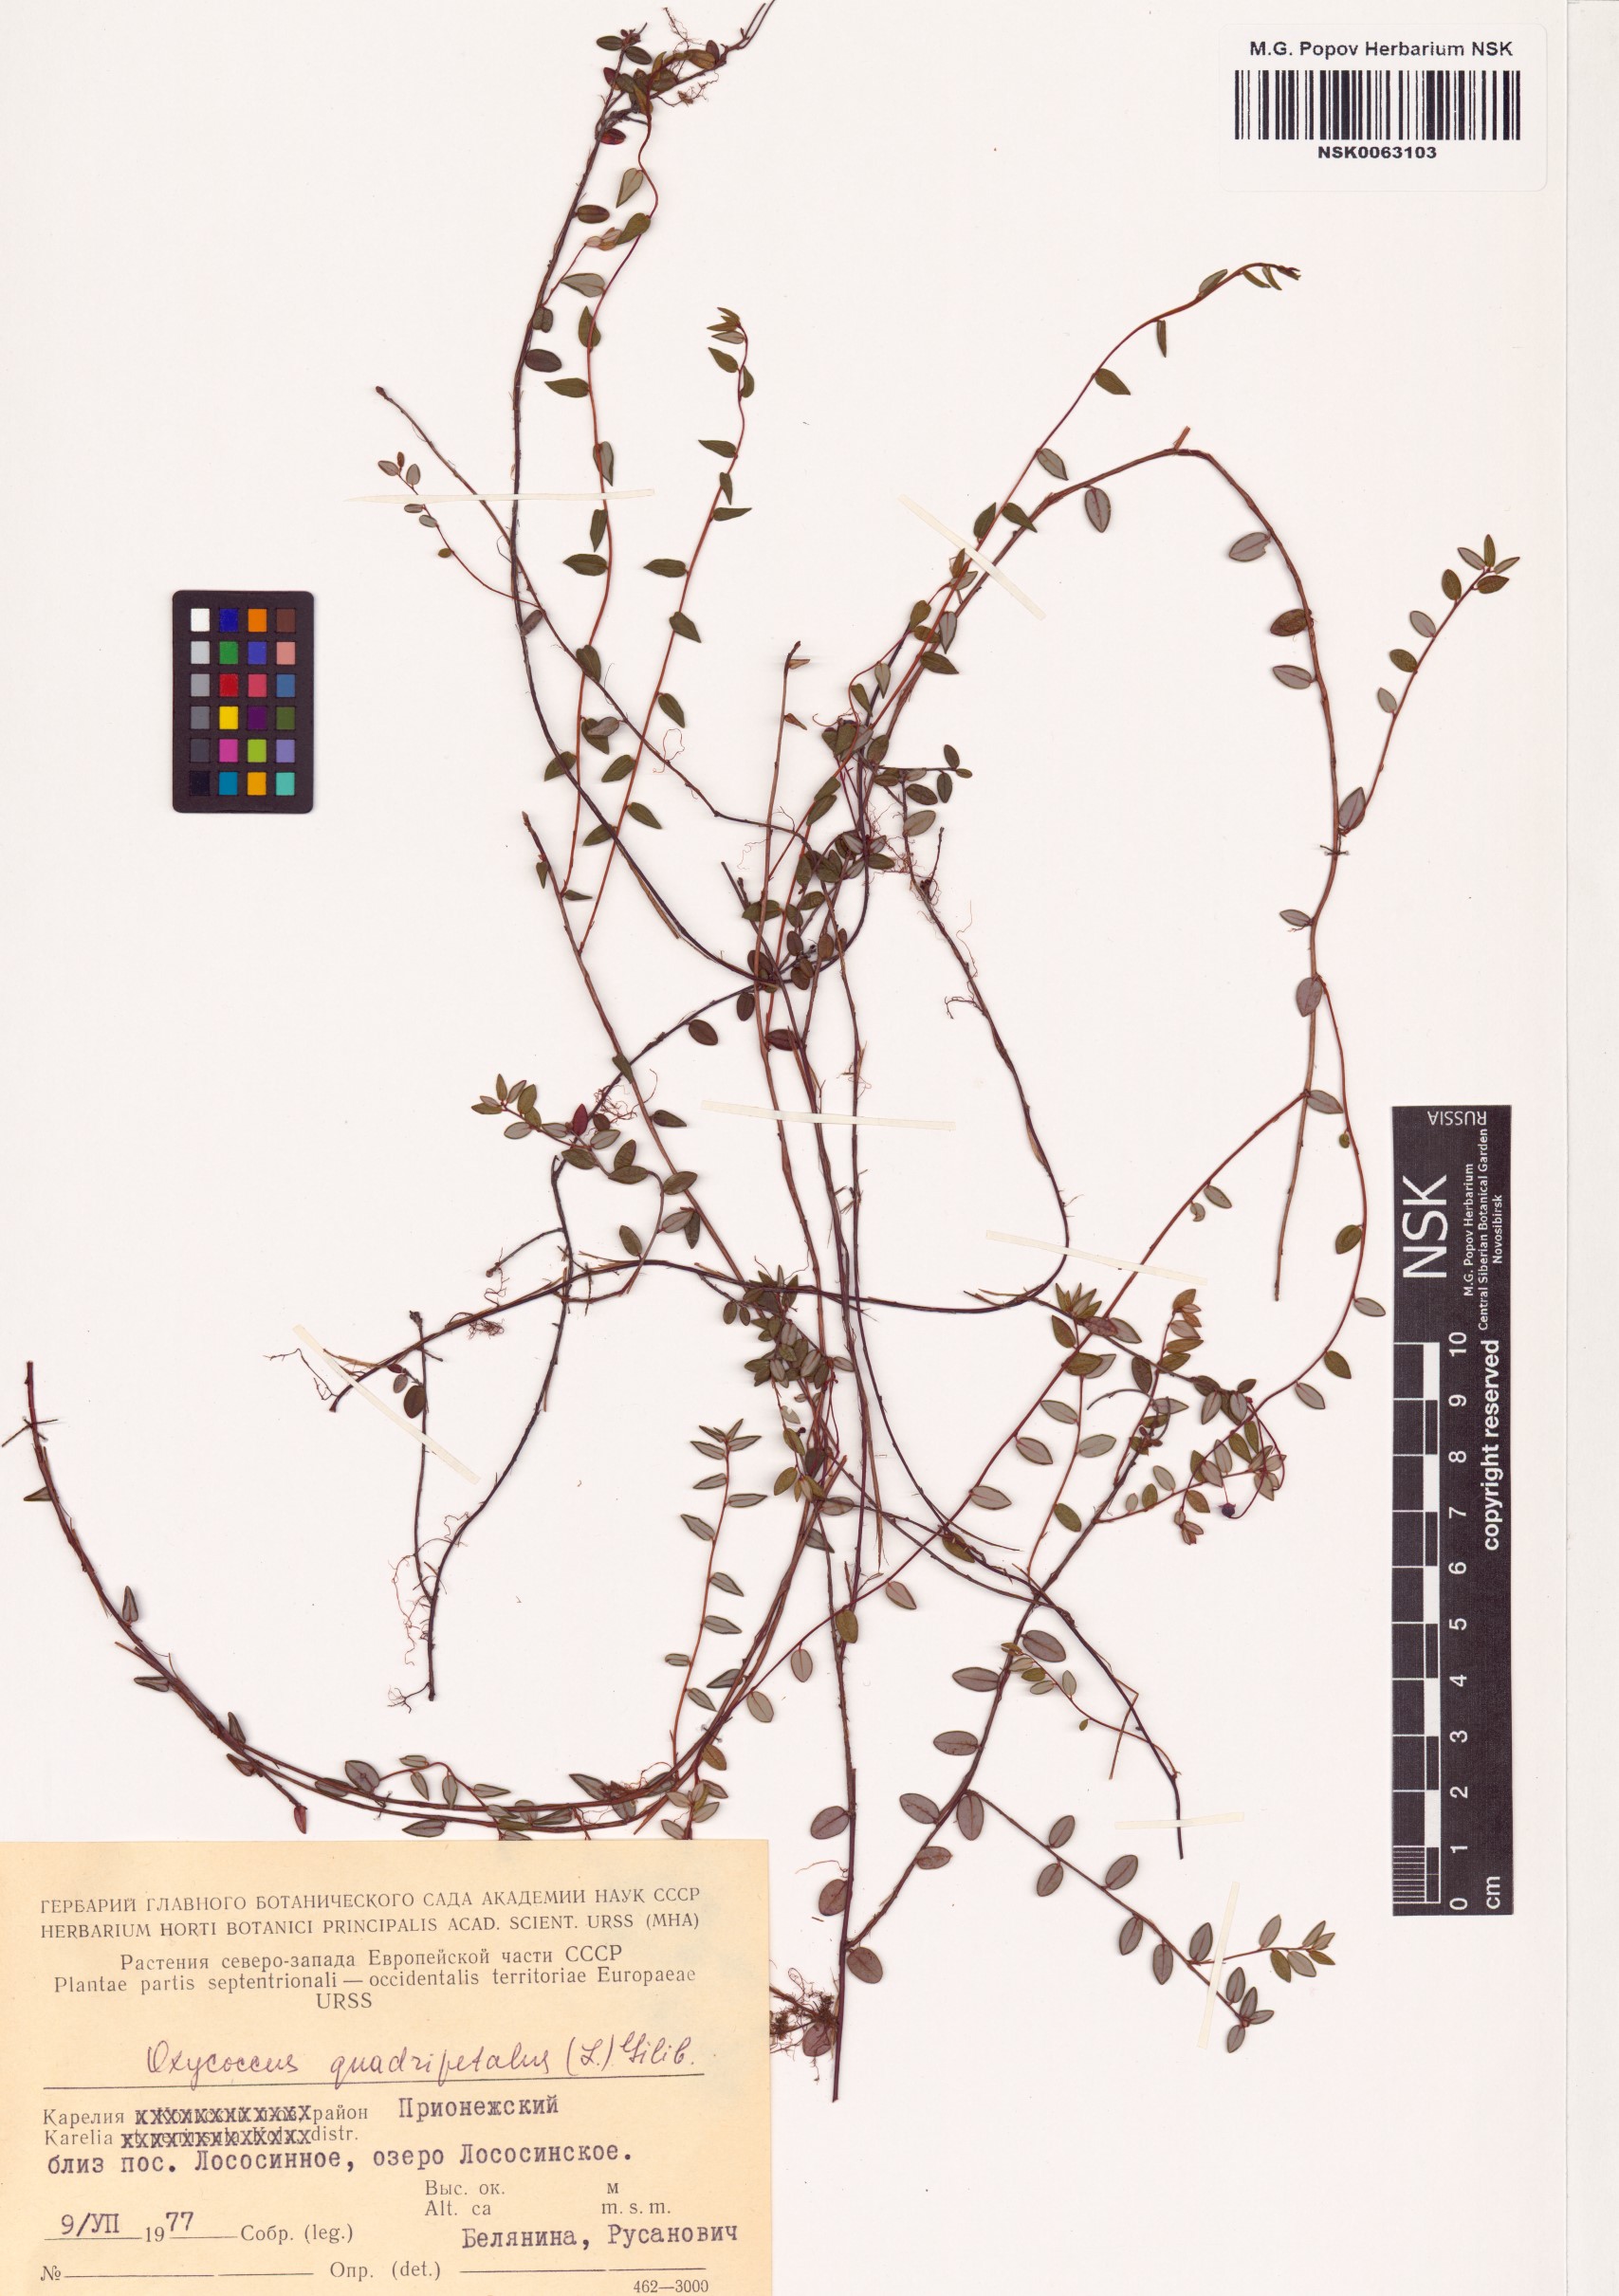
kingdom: Plantae
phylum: Tracheophyta
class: Magnoliopsida
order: Ericales
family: Ericaceae
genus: Vaccinium
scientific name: Vaccinium oxycoccos
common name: Cranberry
